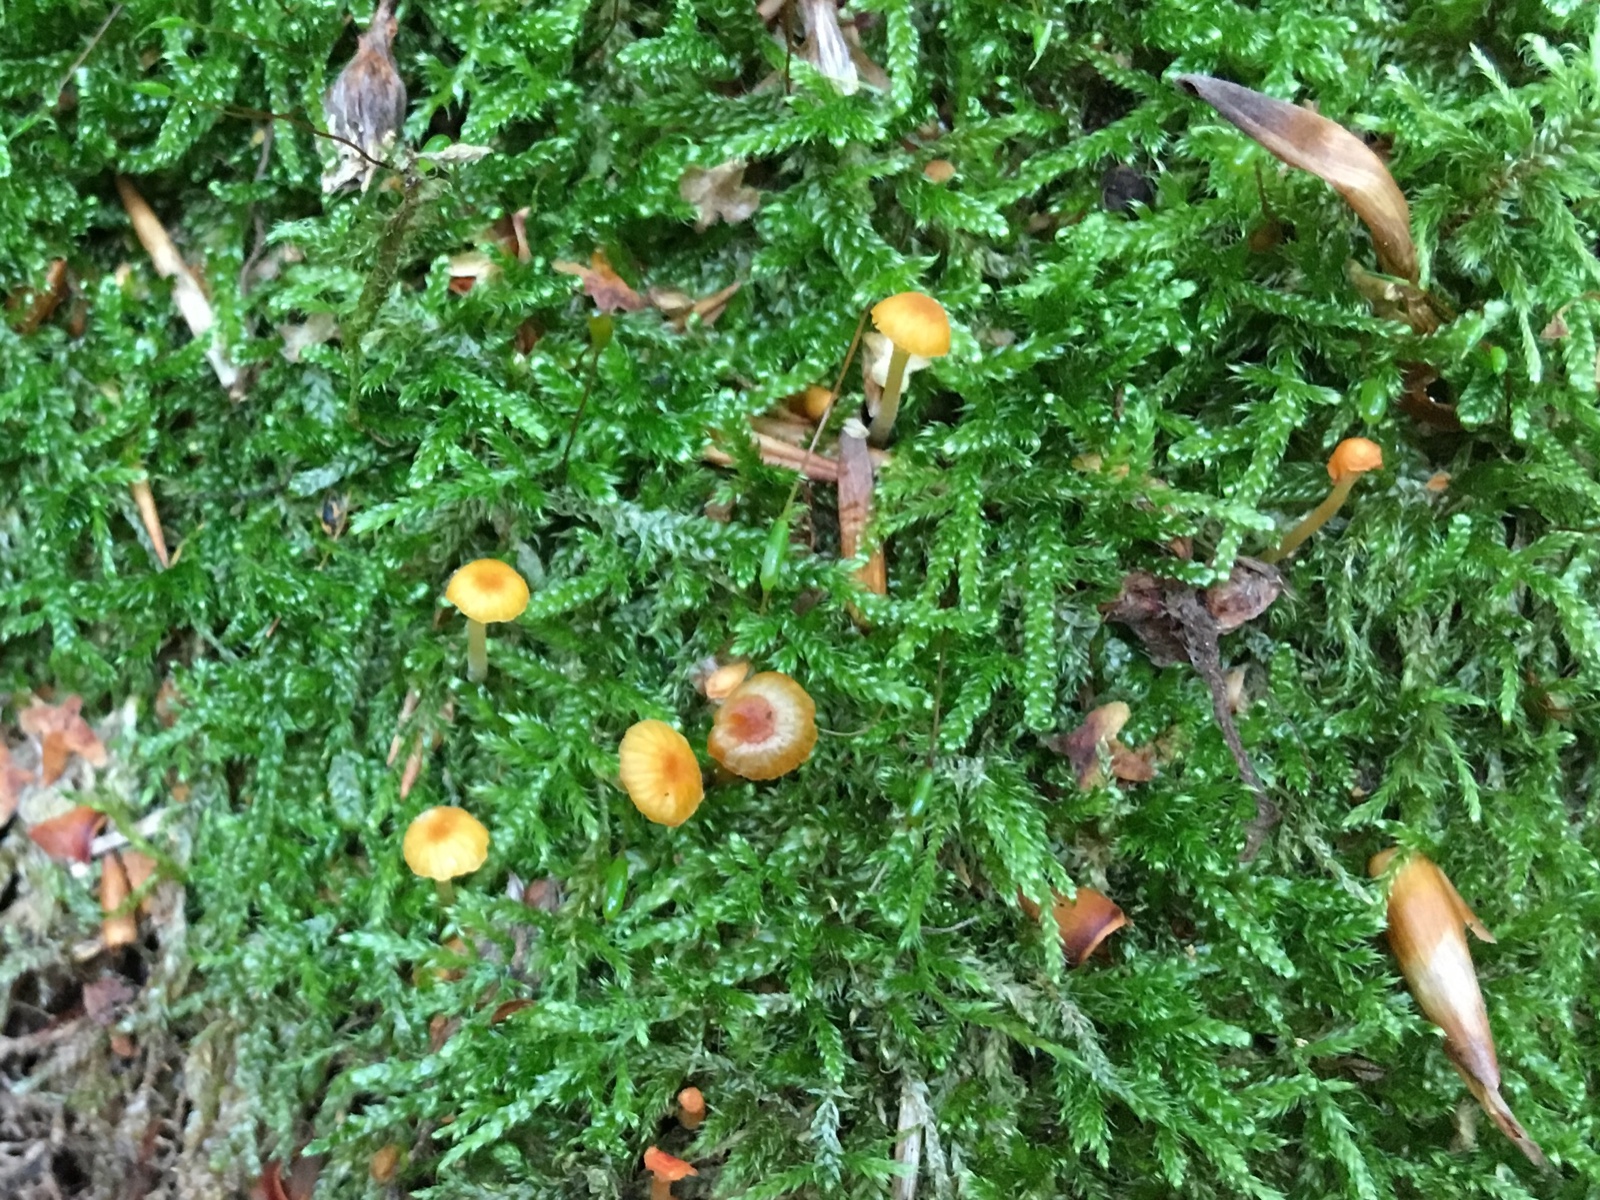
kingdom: Fungi
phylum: Basidiomycota
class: Agaricomycetes
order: Hymenochaetales
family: Rickenellaceae
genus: Rickenella
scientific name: Rickenella fibula
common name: orange mosnavlehat
